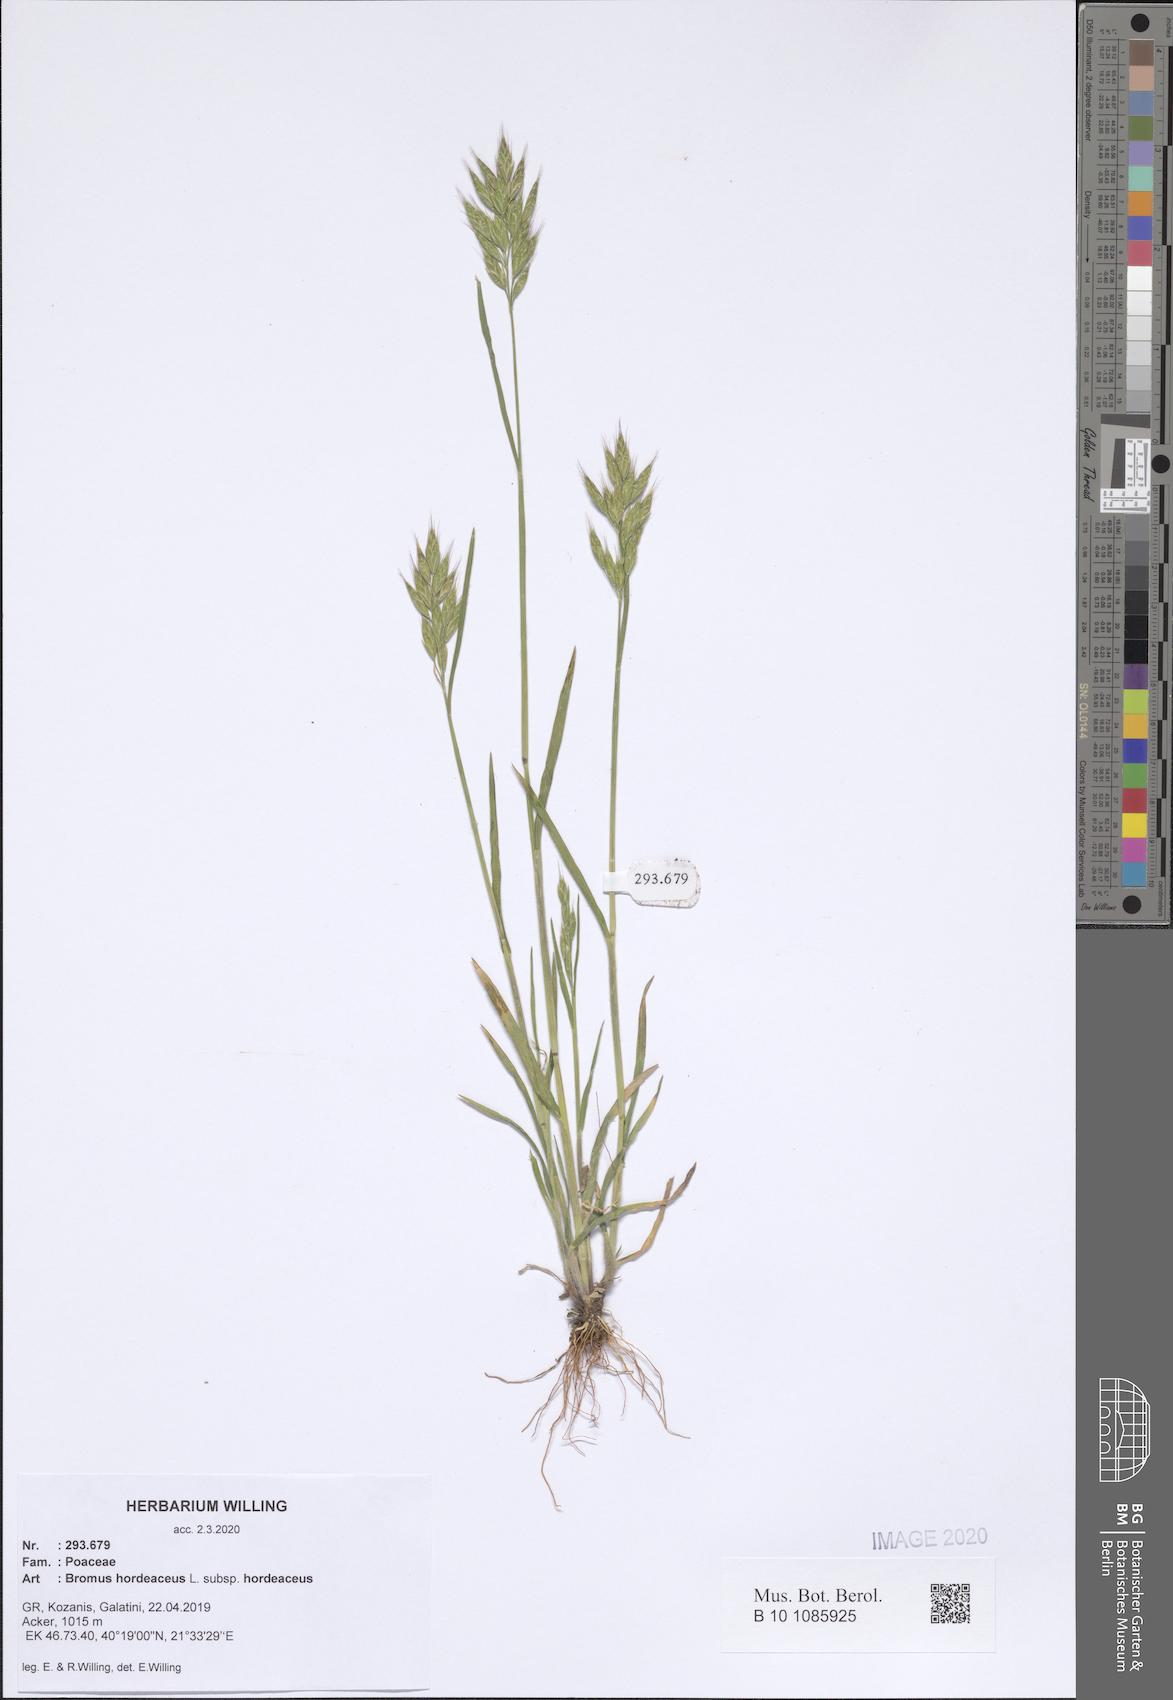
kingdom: Plantae
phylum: Tracheophyta
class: Liliopsida
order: Poales
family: Poaceae
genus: Bromus
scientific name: Bromus hordeaceus
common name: Soft brome
